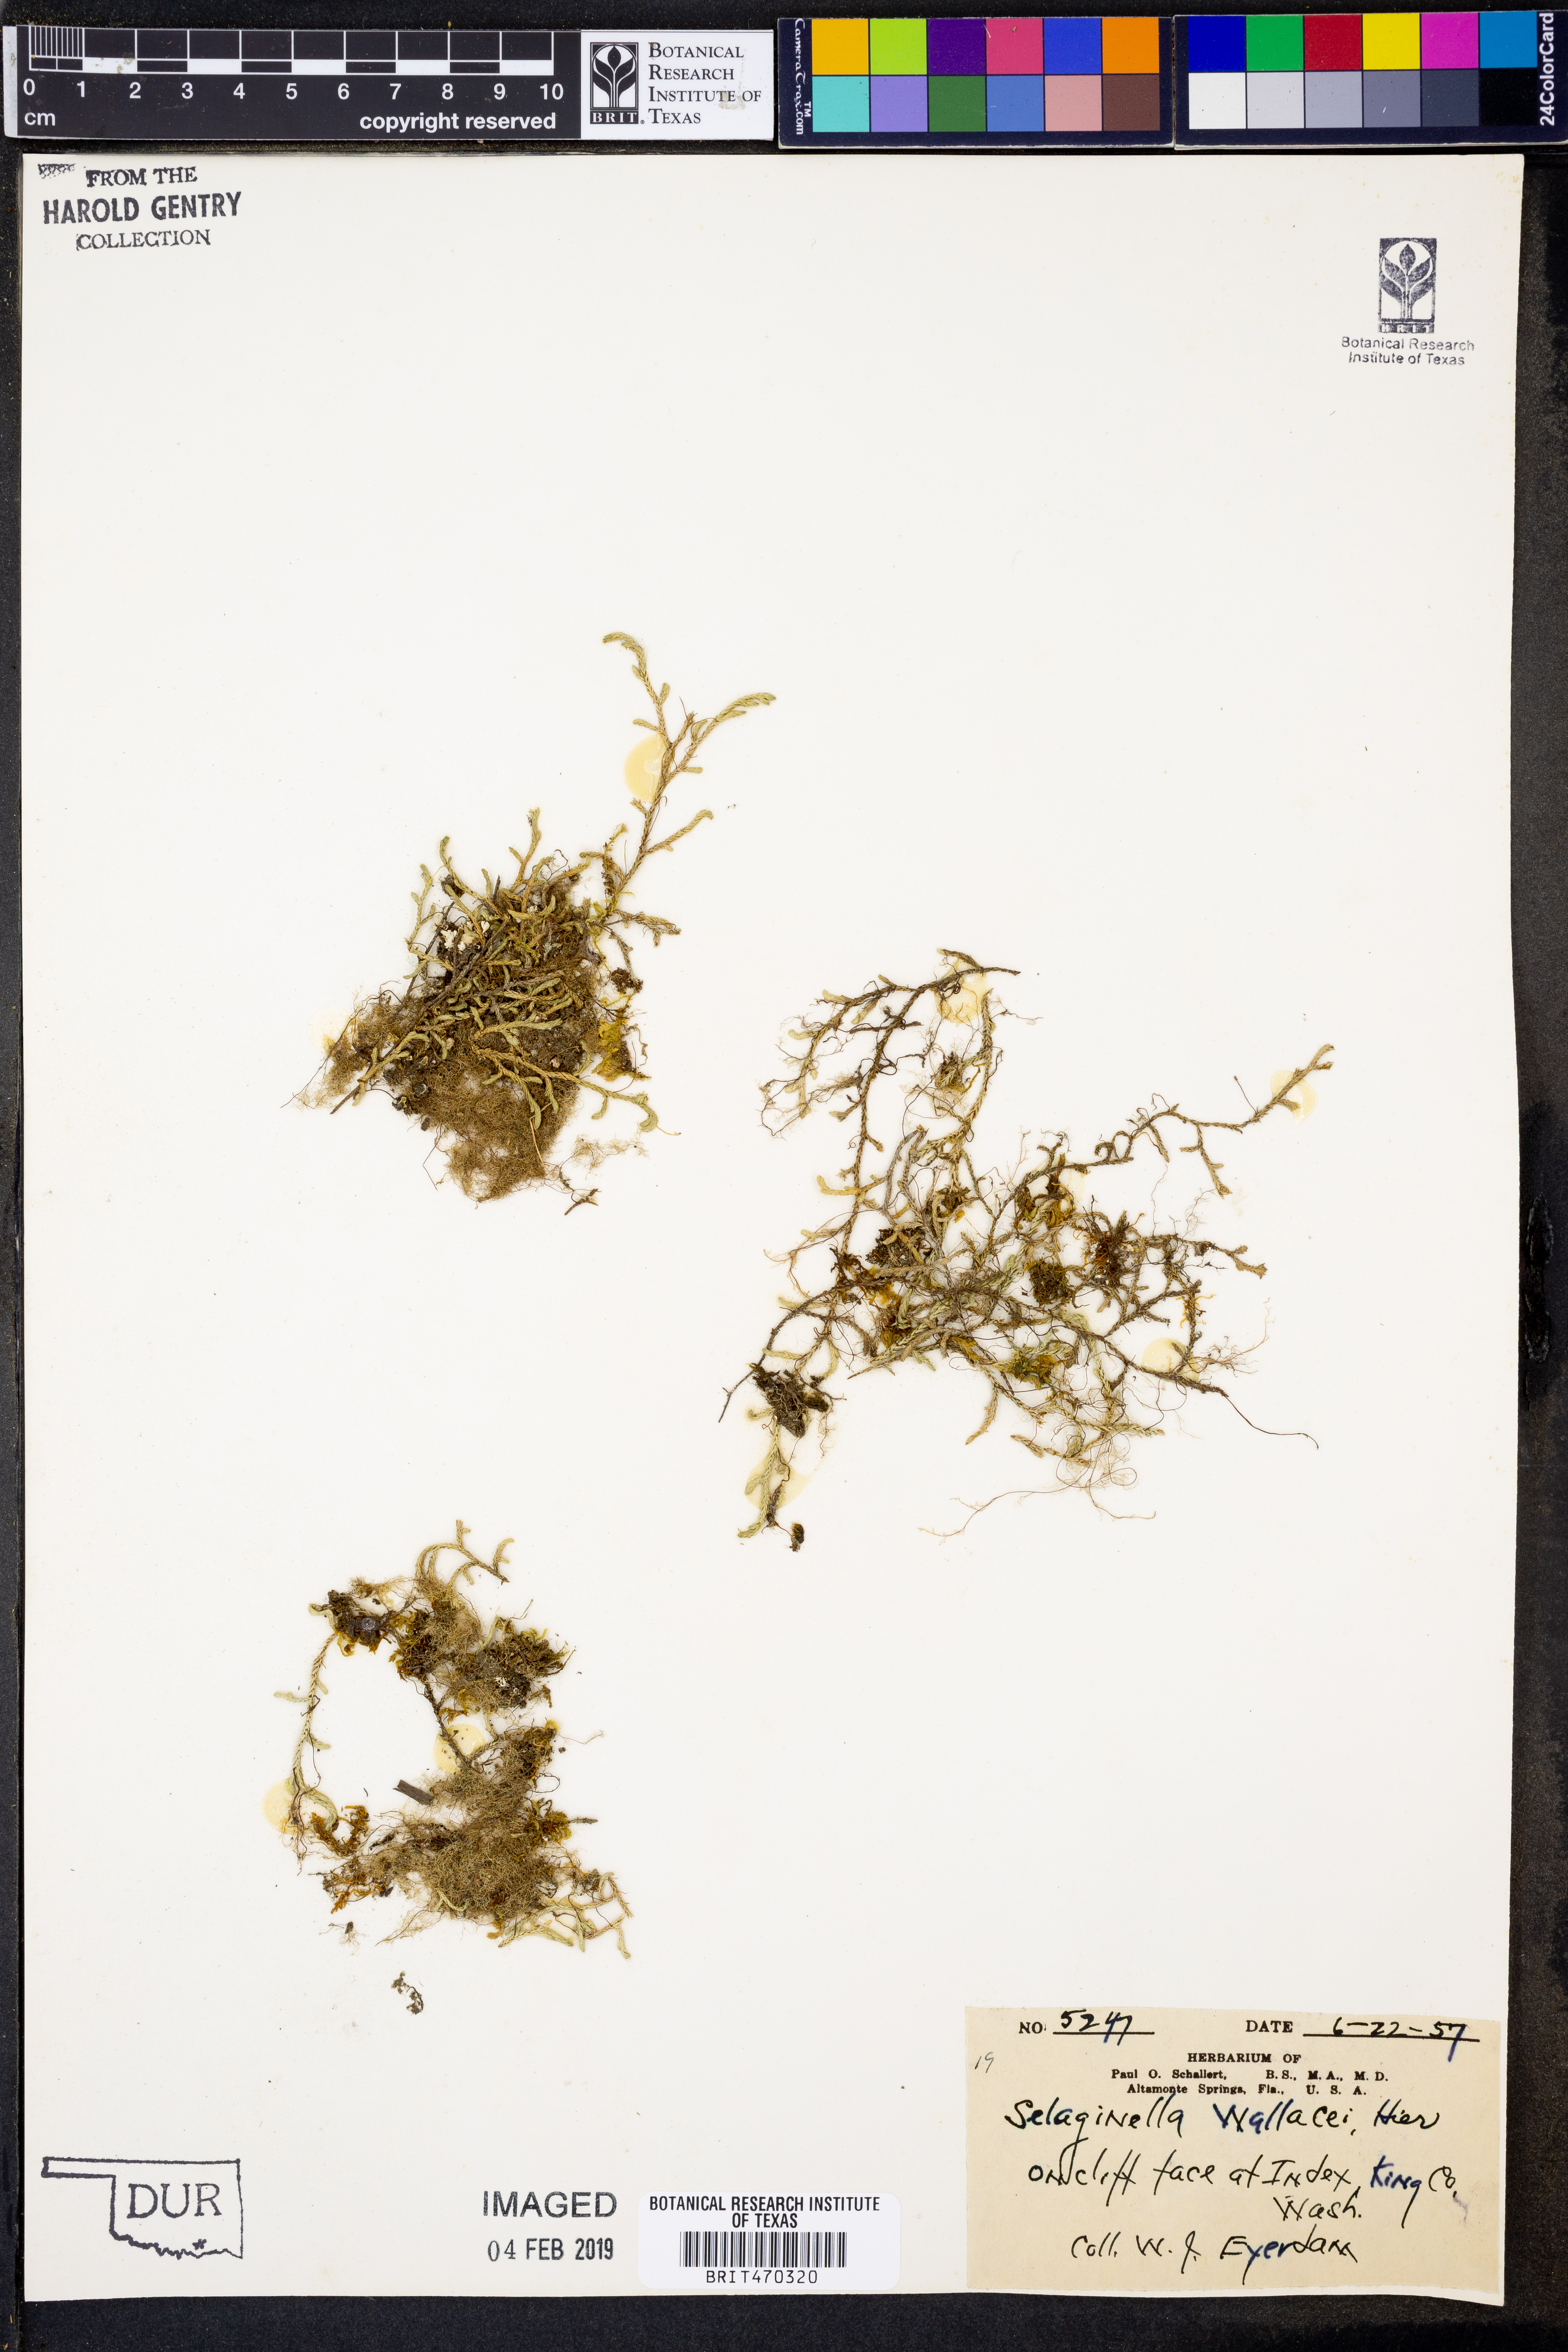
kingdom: Plantae
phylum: Tracheophyta
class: Lycopodiopsida
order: Selaginellales
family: Selaginellaceae
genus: Selaginella
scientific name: Selaginella wallacei
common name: Wallace's selaginella
